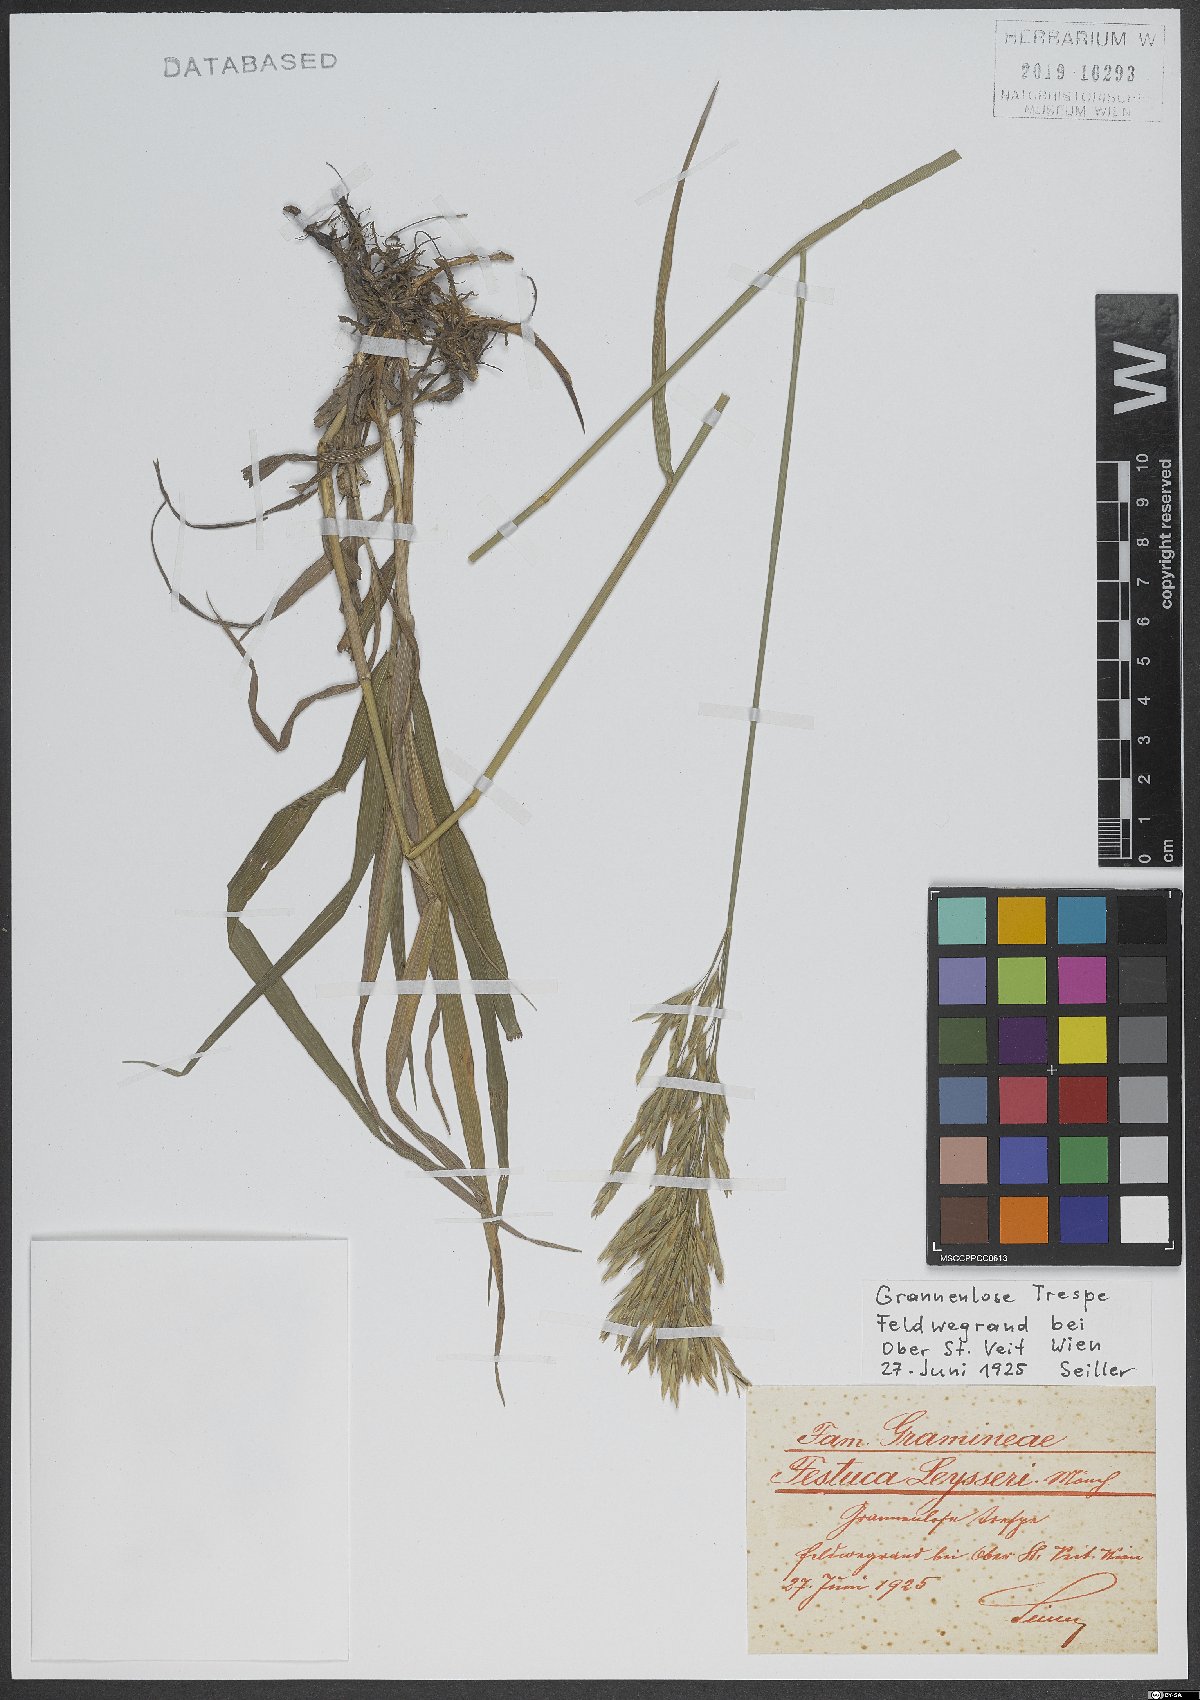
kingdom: Plantae
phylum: Tracheophyta
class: Liliopsida
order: Poales
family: Poaceae
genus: Bromus
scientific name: Bromus inermis
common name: Smooth brome
